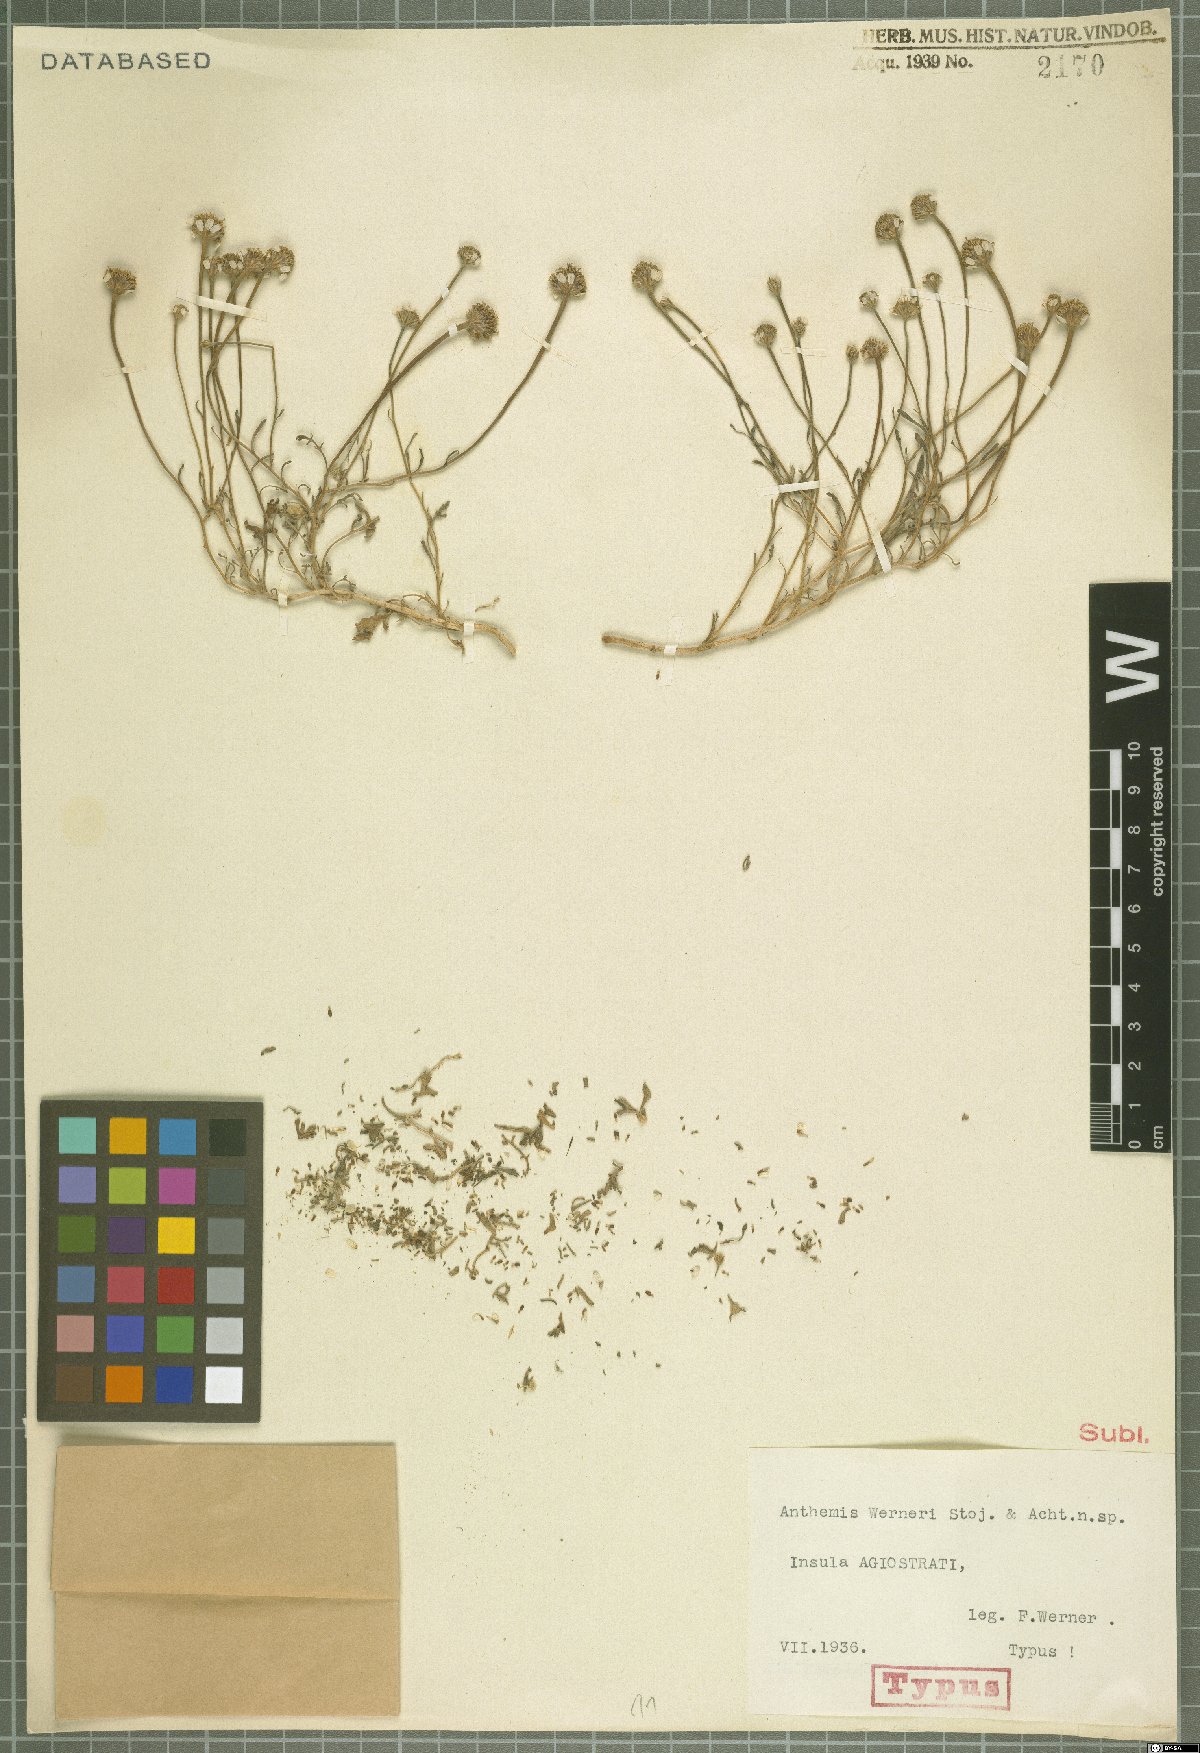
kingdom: Plantae
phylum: Tracheophyta
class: Magnoliopsida
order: Asterales
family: Asteraceae
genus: Anthemis
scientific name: Anthemis werneri
